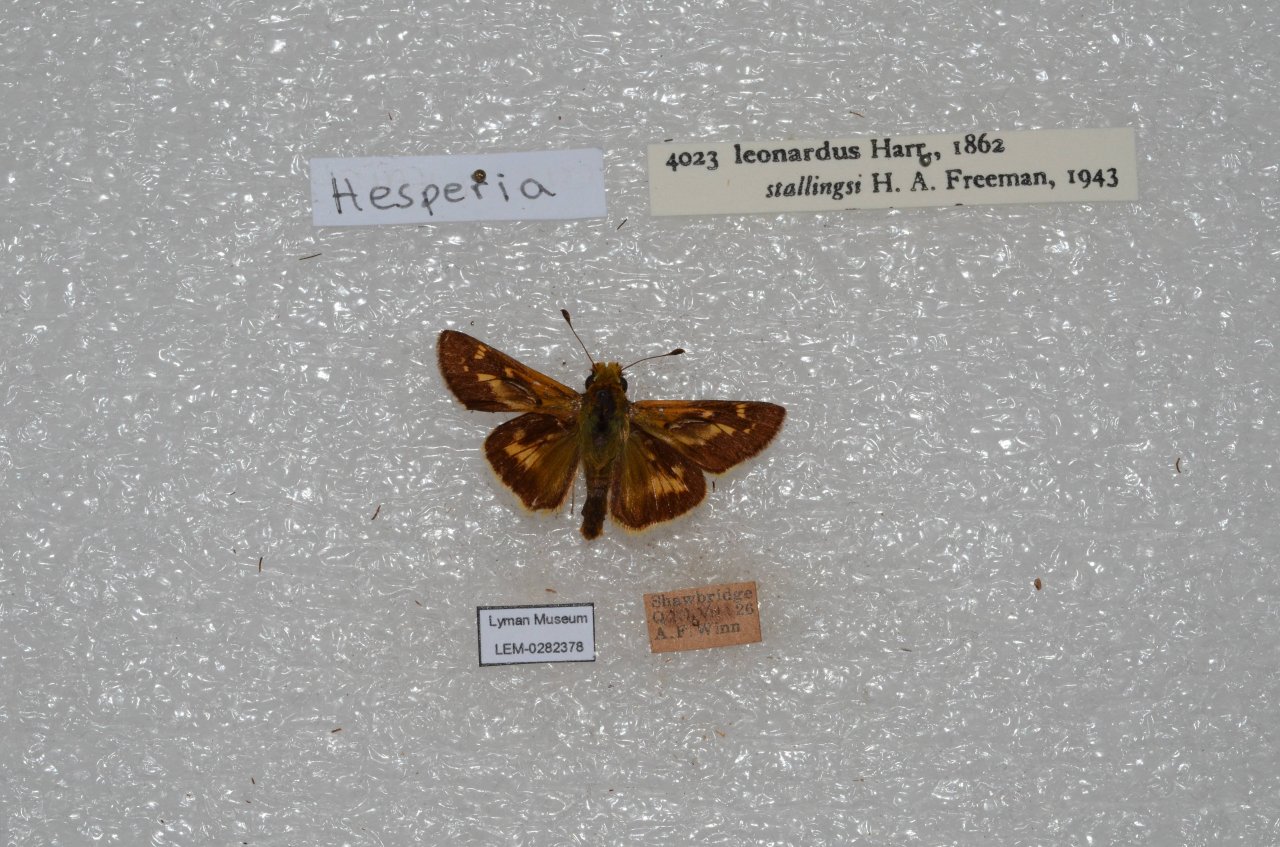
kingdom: Animalia
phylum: Arthropoda
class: Insecta
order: Lepidoptera
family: Hesperiidae
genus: Hesperia
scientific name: Hesperia leonardus
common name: Leonard's Skipper
